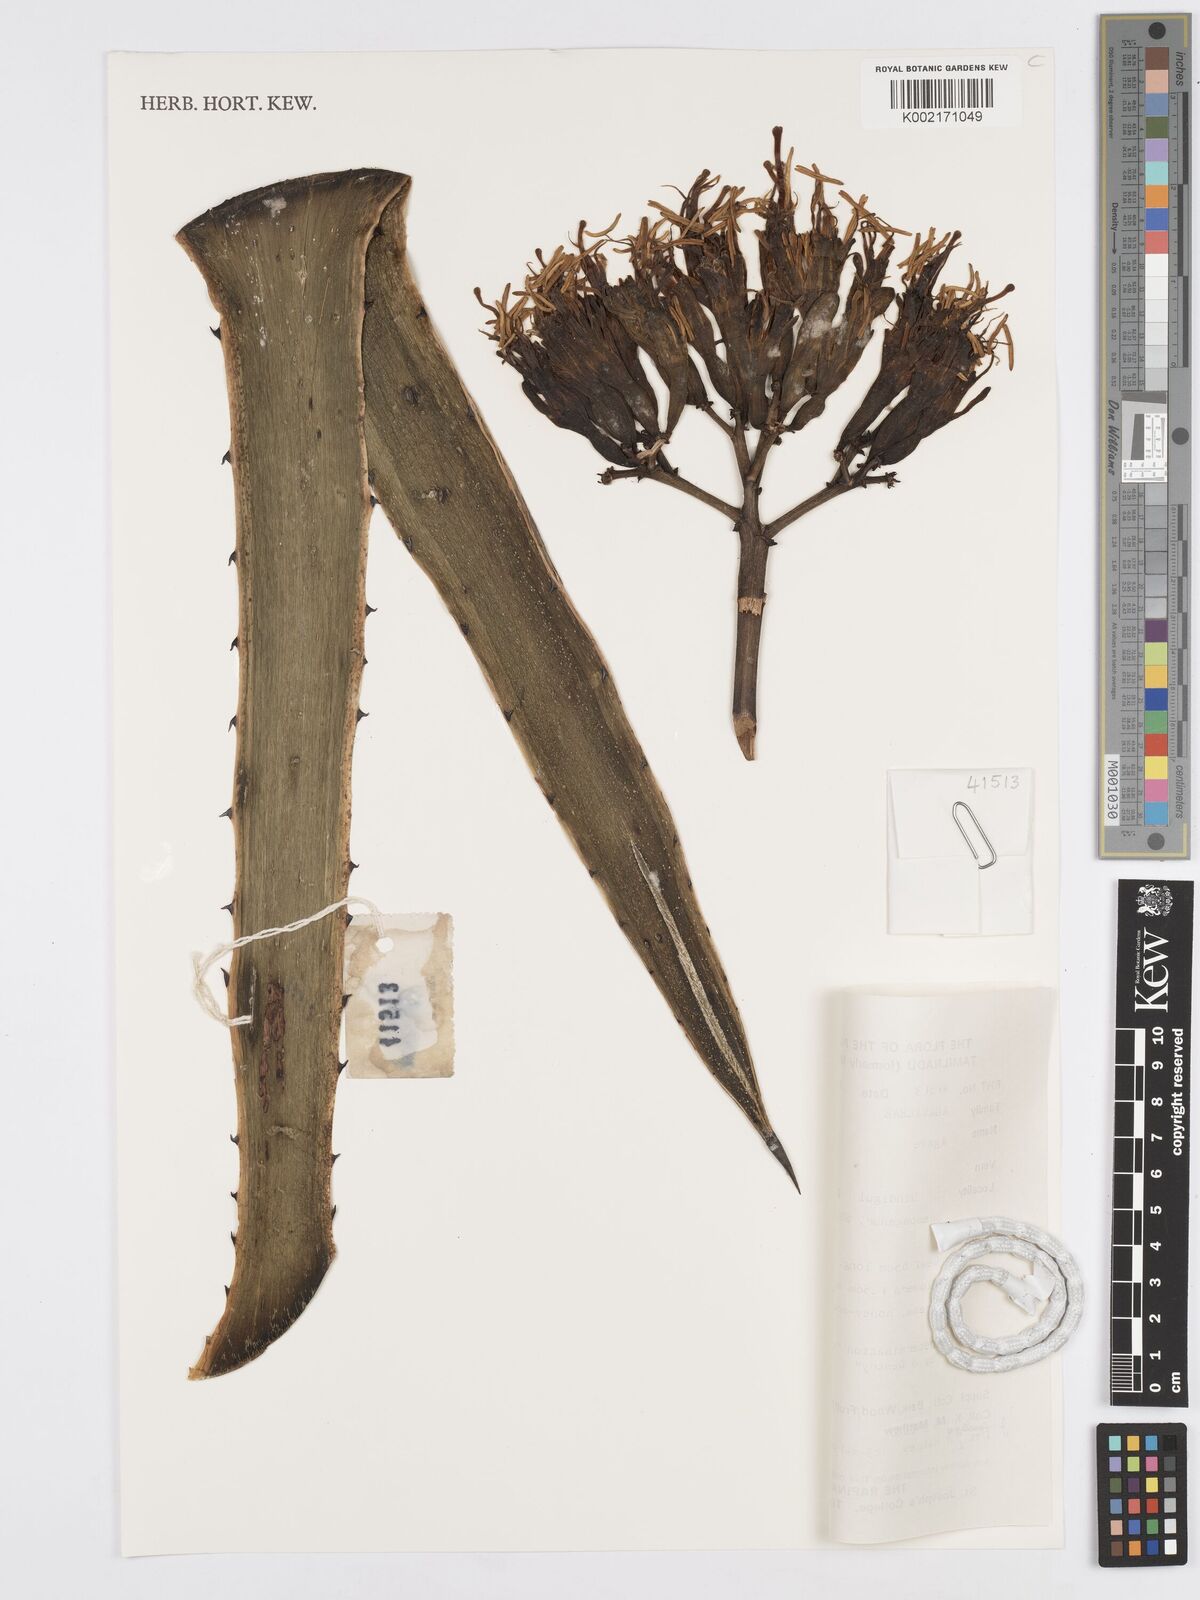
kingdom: Plantae
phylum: Tracheophyta
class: Liliopsida
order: Asparagales
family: Asparagaceae
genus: Agave
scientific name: Agave
